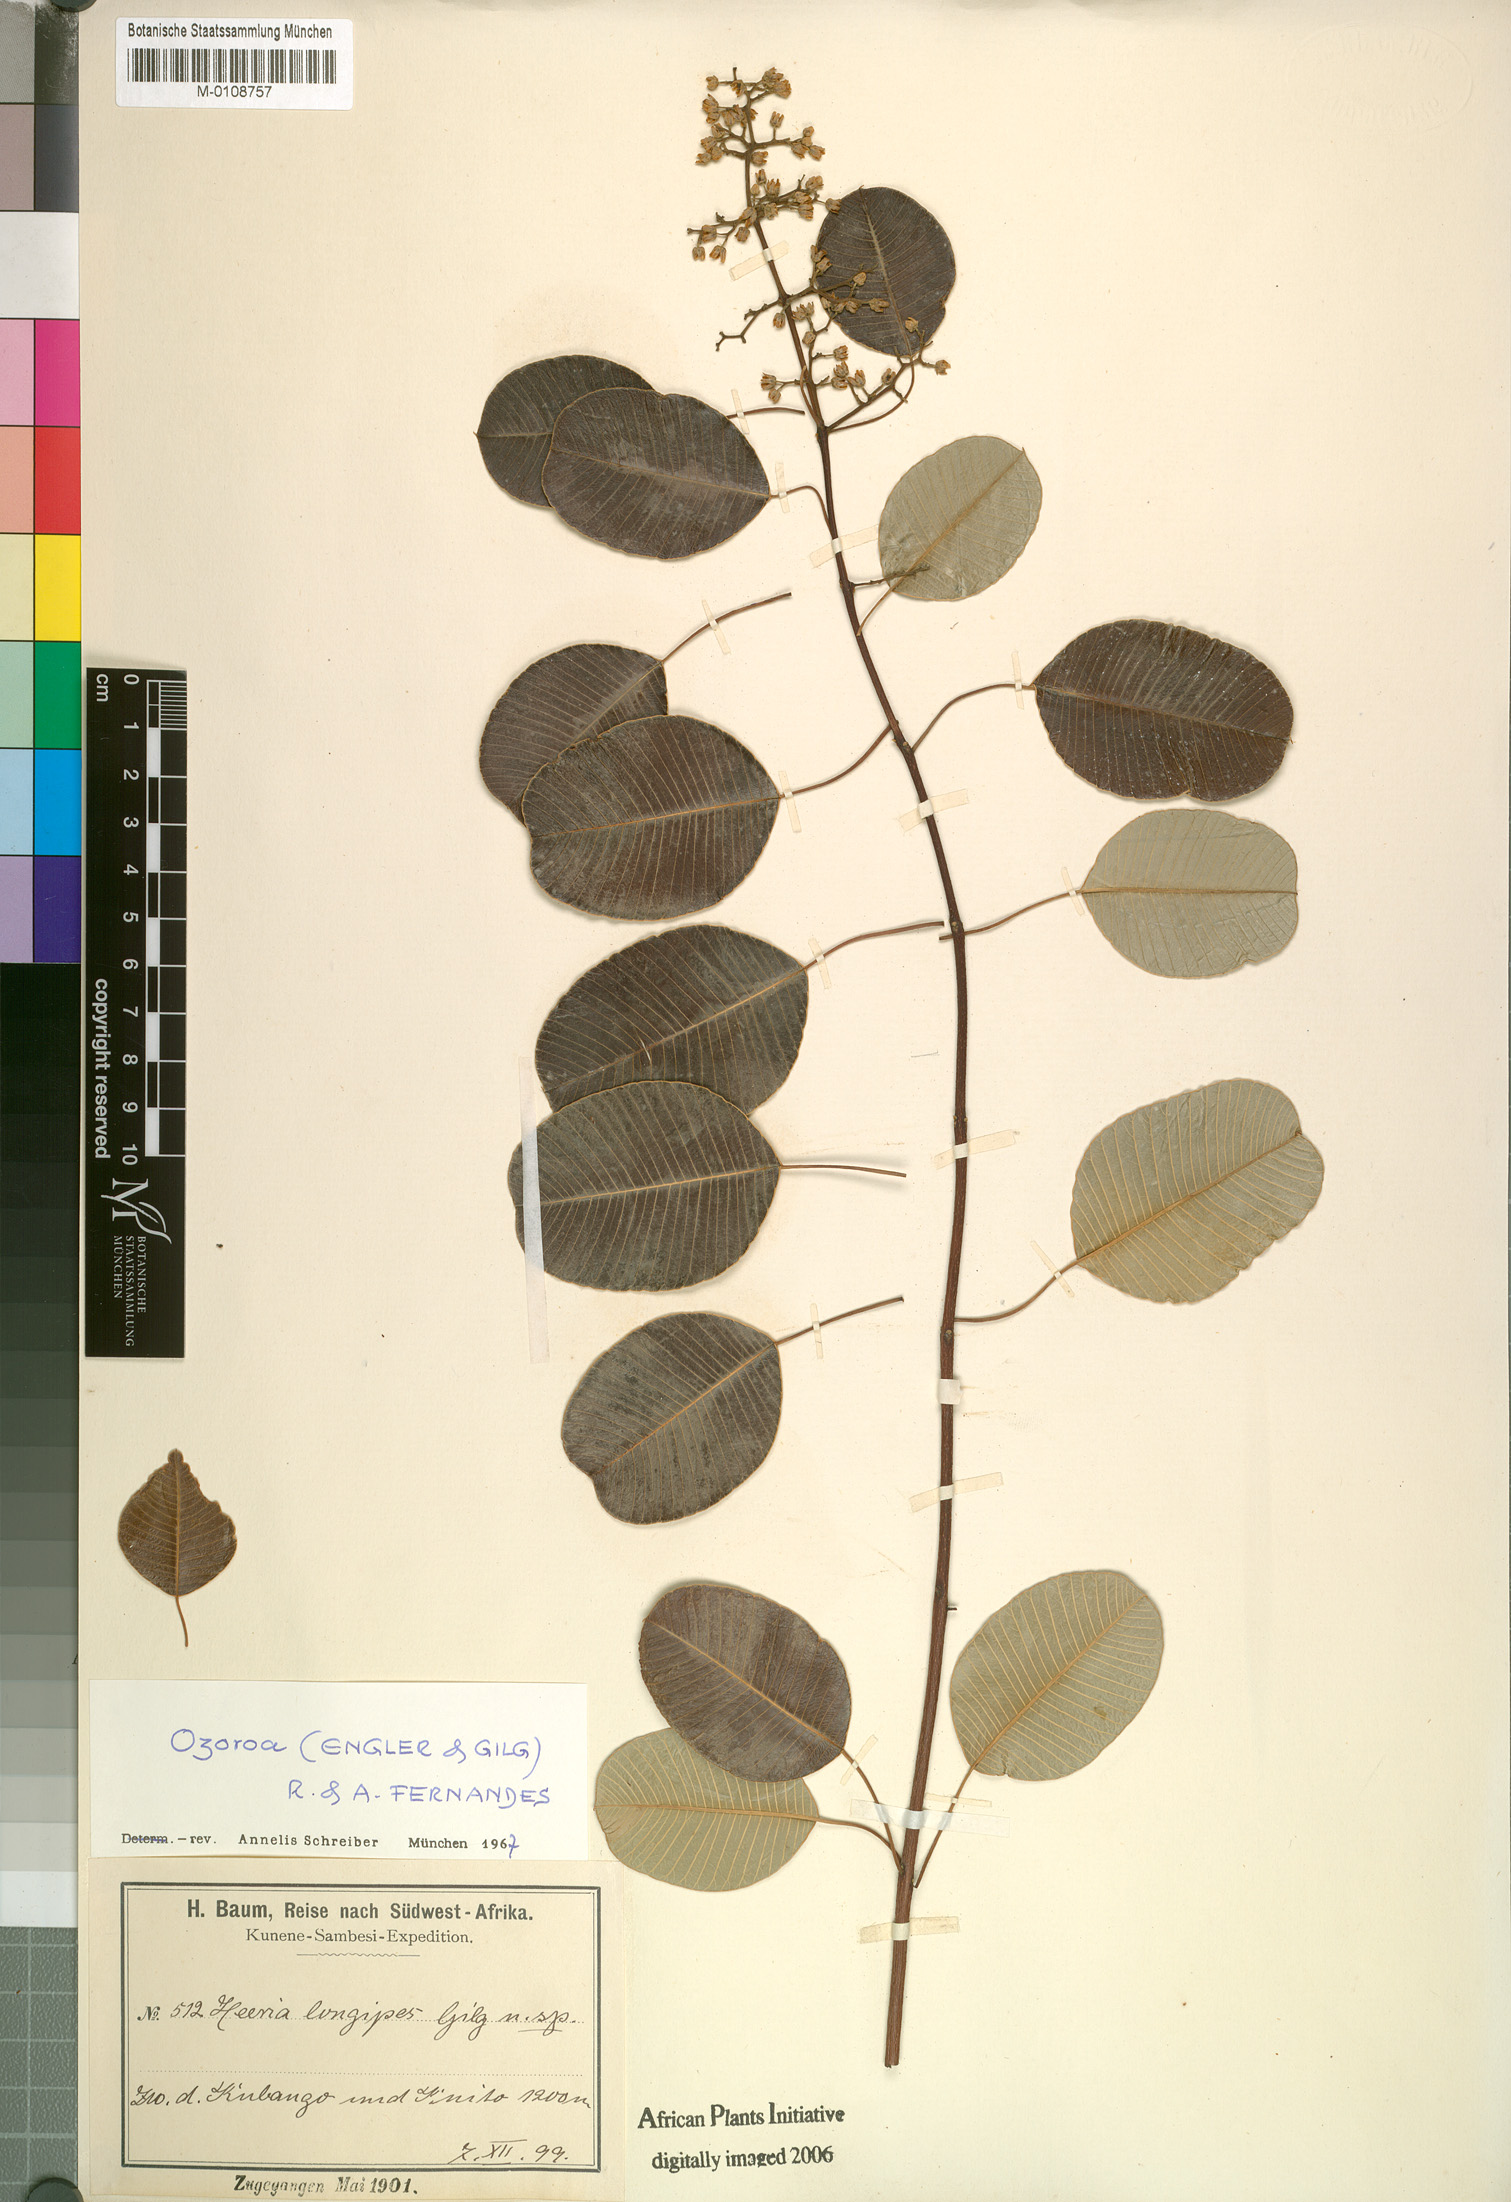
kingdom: Plantae
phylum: Tracheophyta
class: Magnoliopsida
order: Sapindales
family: Anacardiaceae
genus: Ozoroa
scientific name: Ozoroa longipes
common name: Round-leaved resin tree
